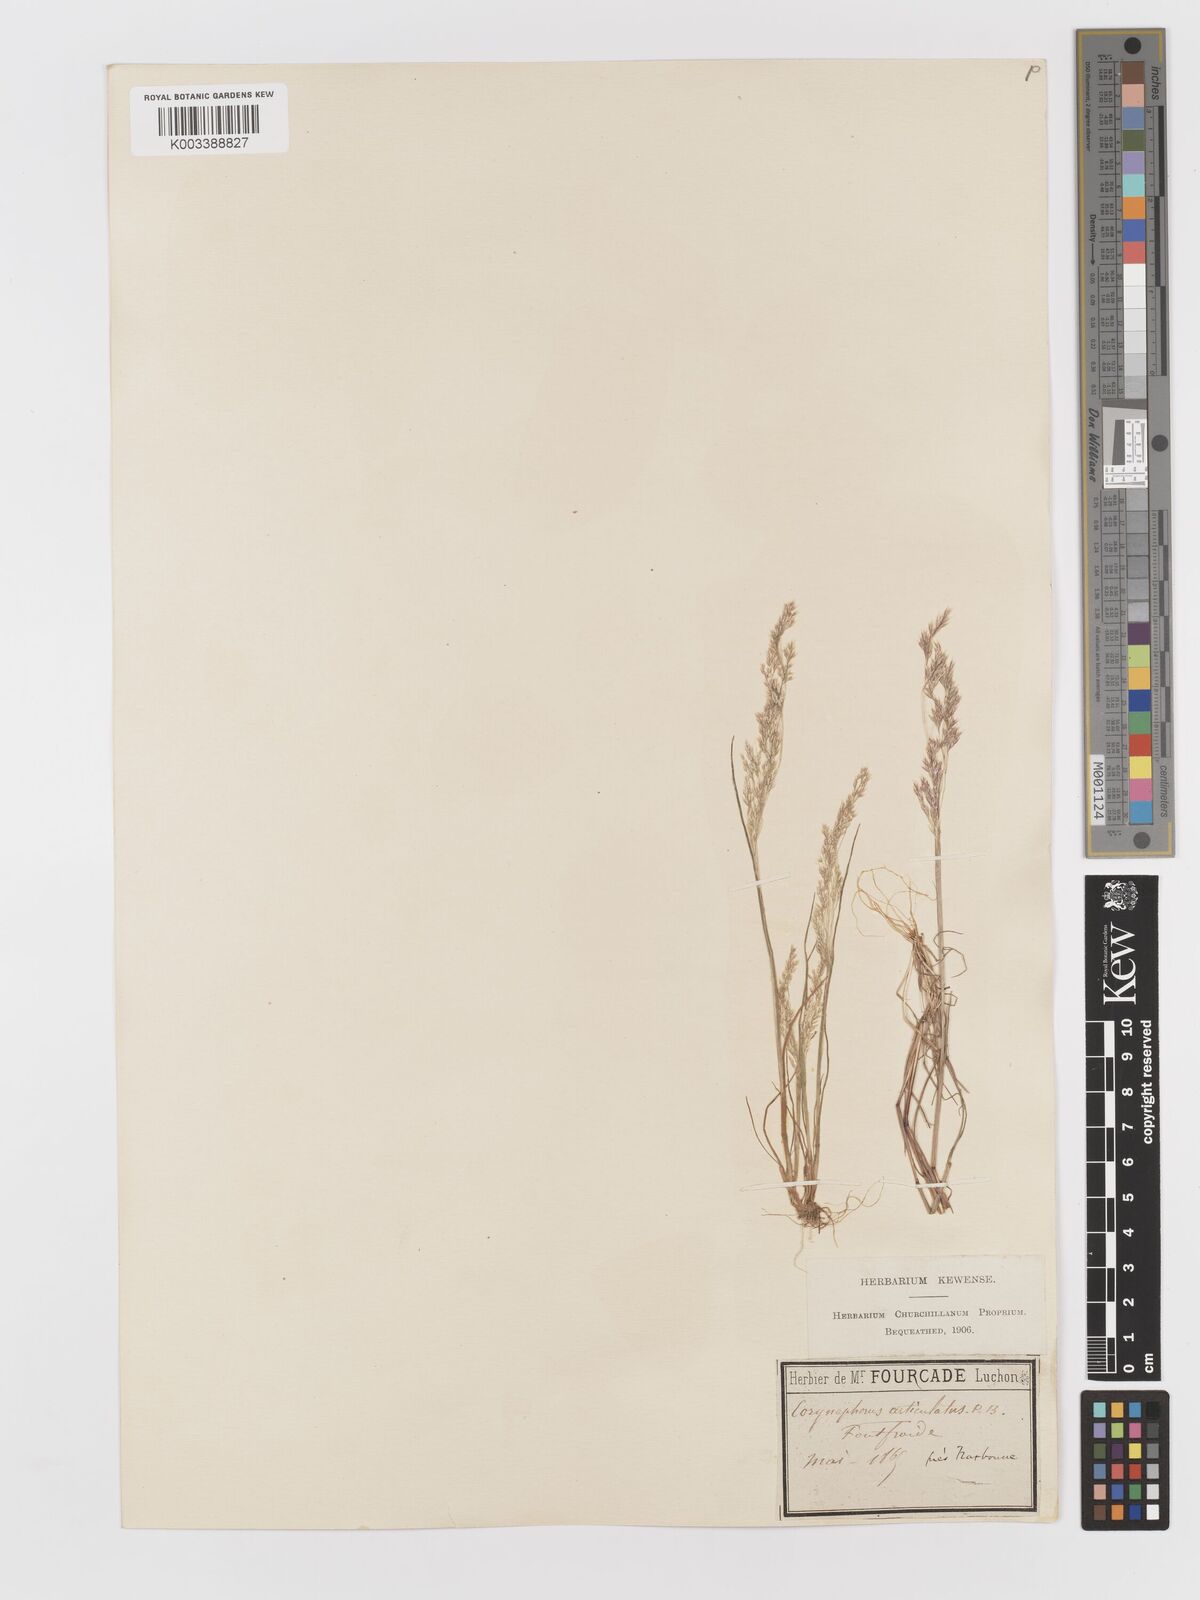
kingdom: Plantae
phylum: Tracheophyta
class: Liliopsida
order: Poales
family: Poaceae
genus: Corynephorus
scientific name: Corynephorus divaricatus
